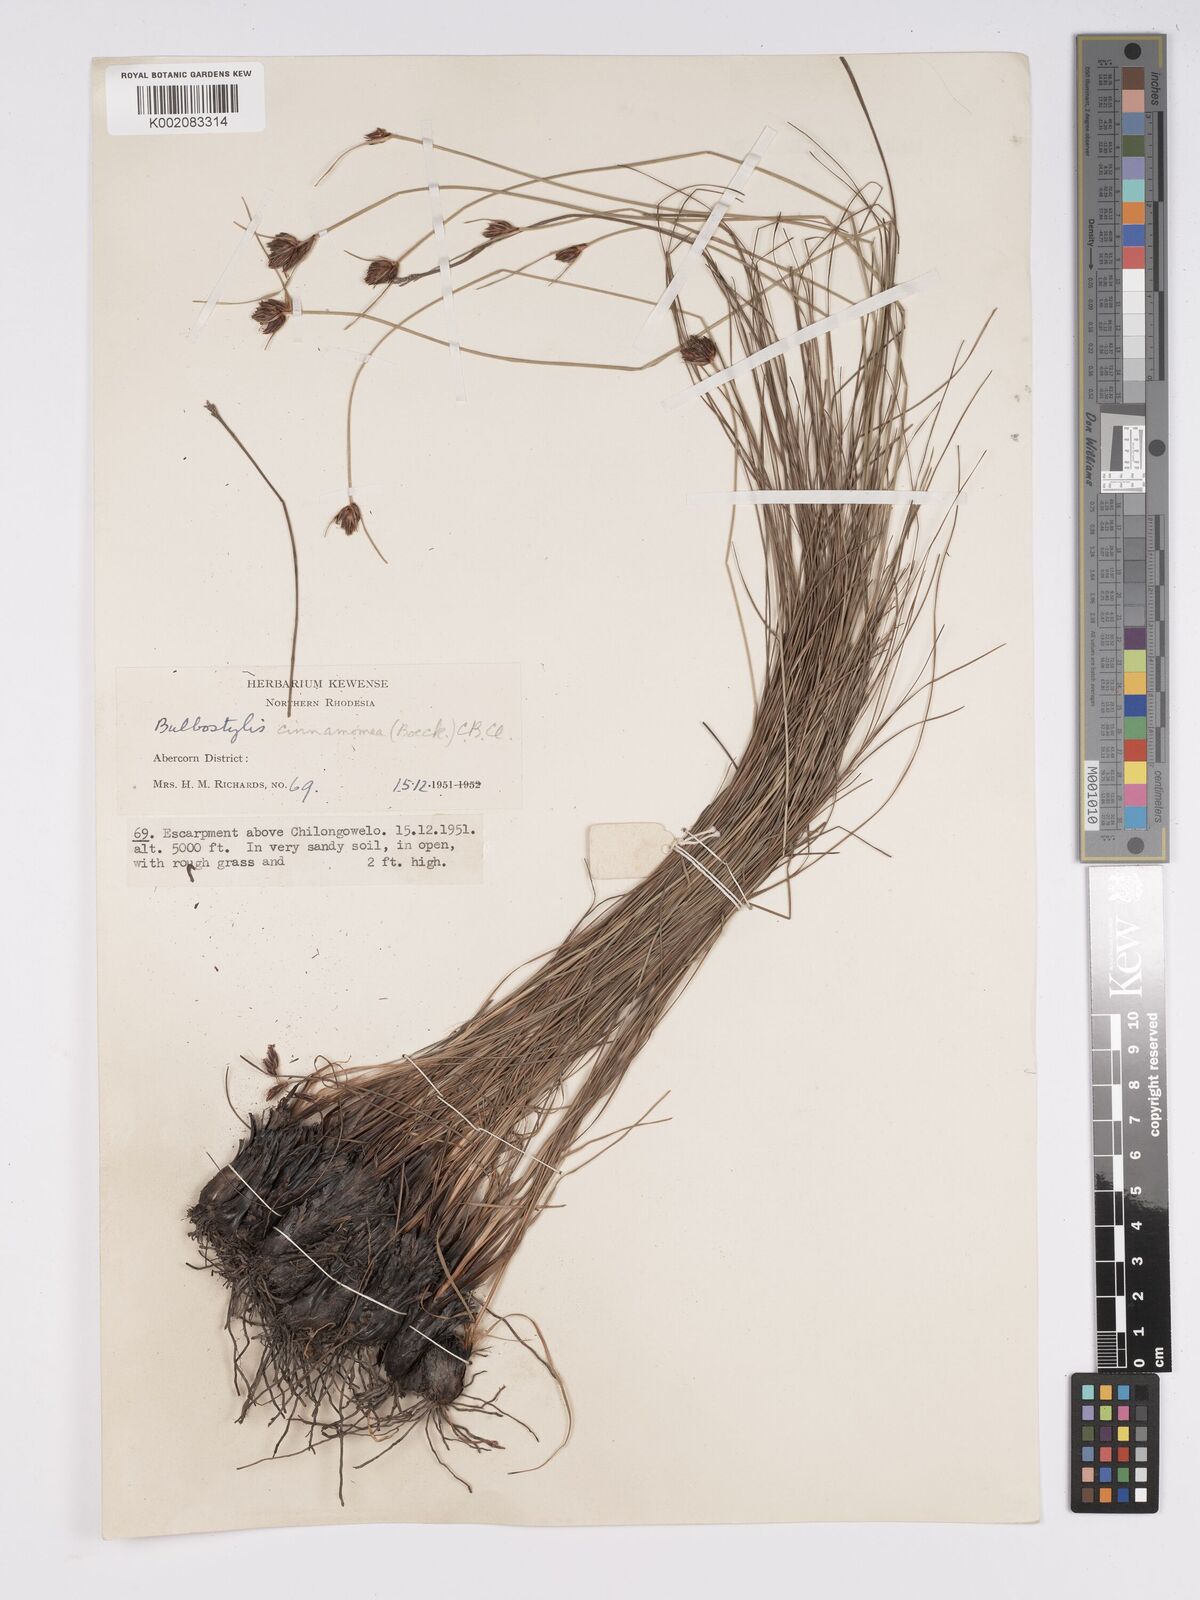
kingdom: Plantae
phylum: Tracheophyta
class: Liliopsida
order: Poales
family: Cyperaceae
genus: Bulbostylis
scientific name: Bulbostylis schoenoides
